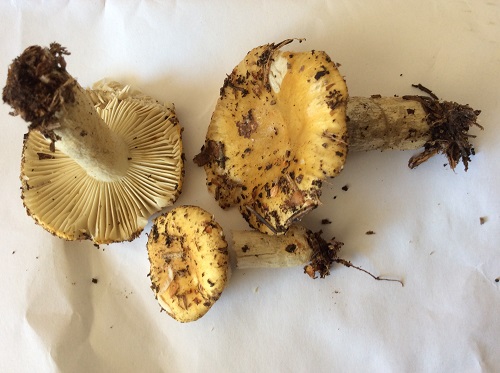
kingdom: Fungi
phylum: Basidiomycota
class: Agaricomycetes
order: Russulales
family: Russulaceae
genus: Russula
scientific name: Russula ochroleuca
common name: okkergul skørhat
